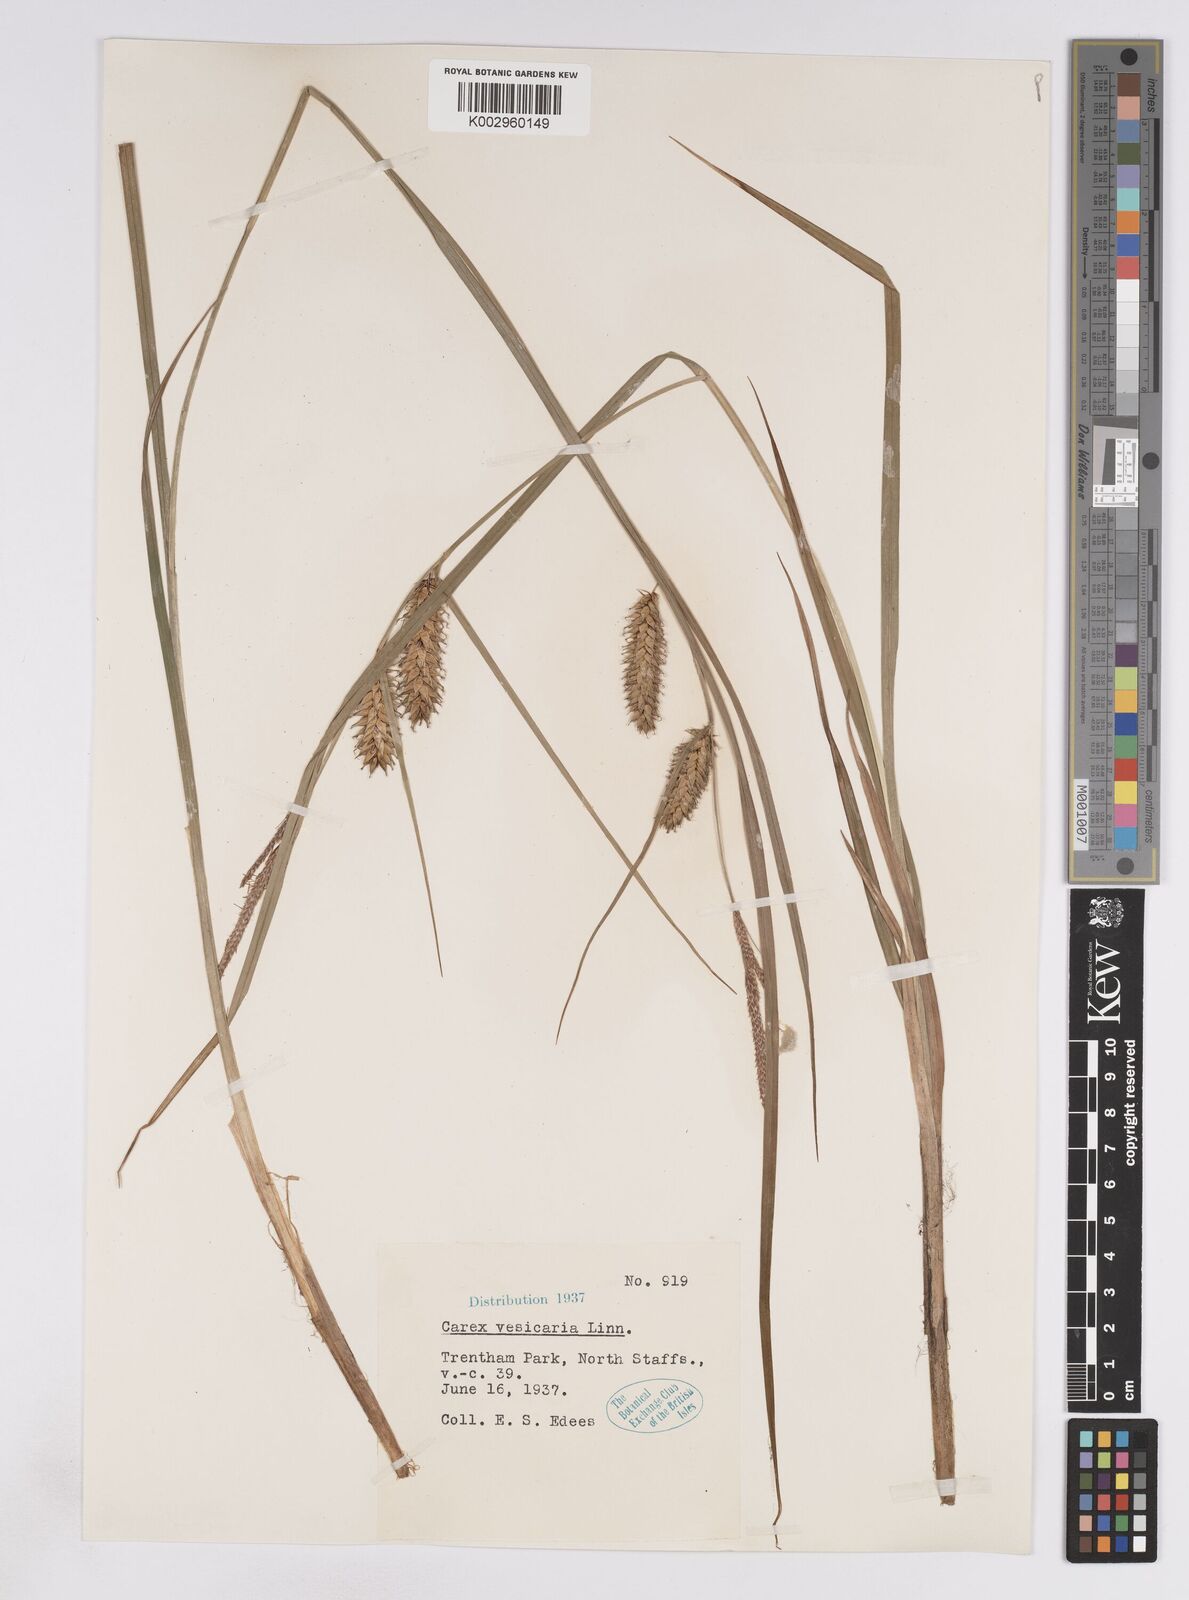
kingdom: Plantae
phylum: Tracheophyta
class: Liliopsida
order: Poales
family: Cyperaceae
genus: Carex
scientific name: Carex vesicaria
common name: Bladder-sedge
